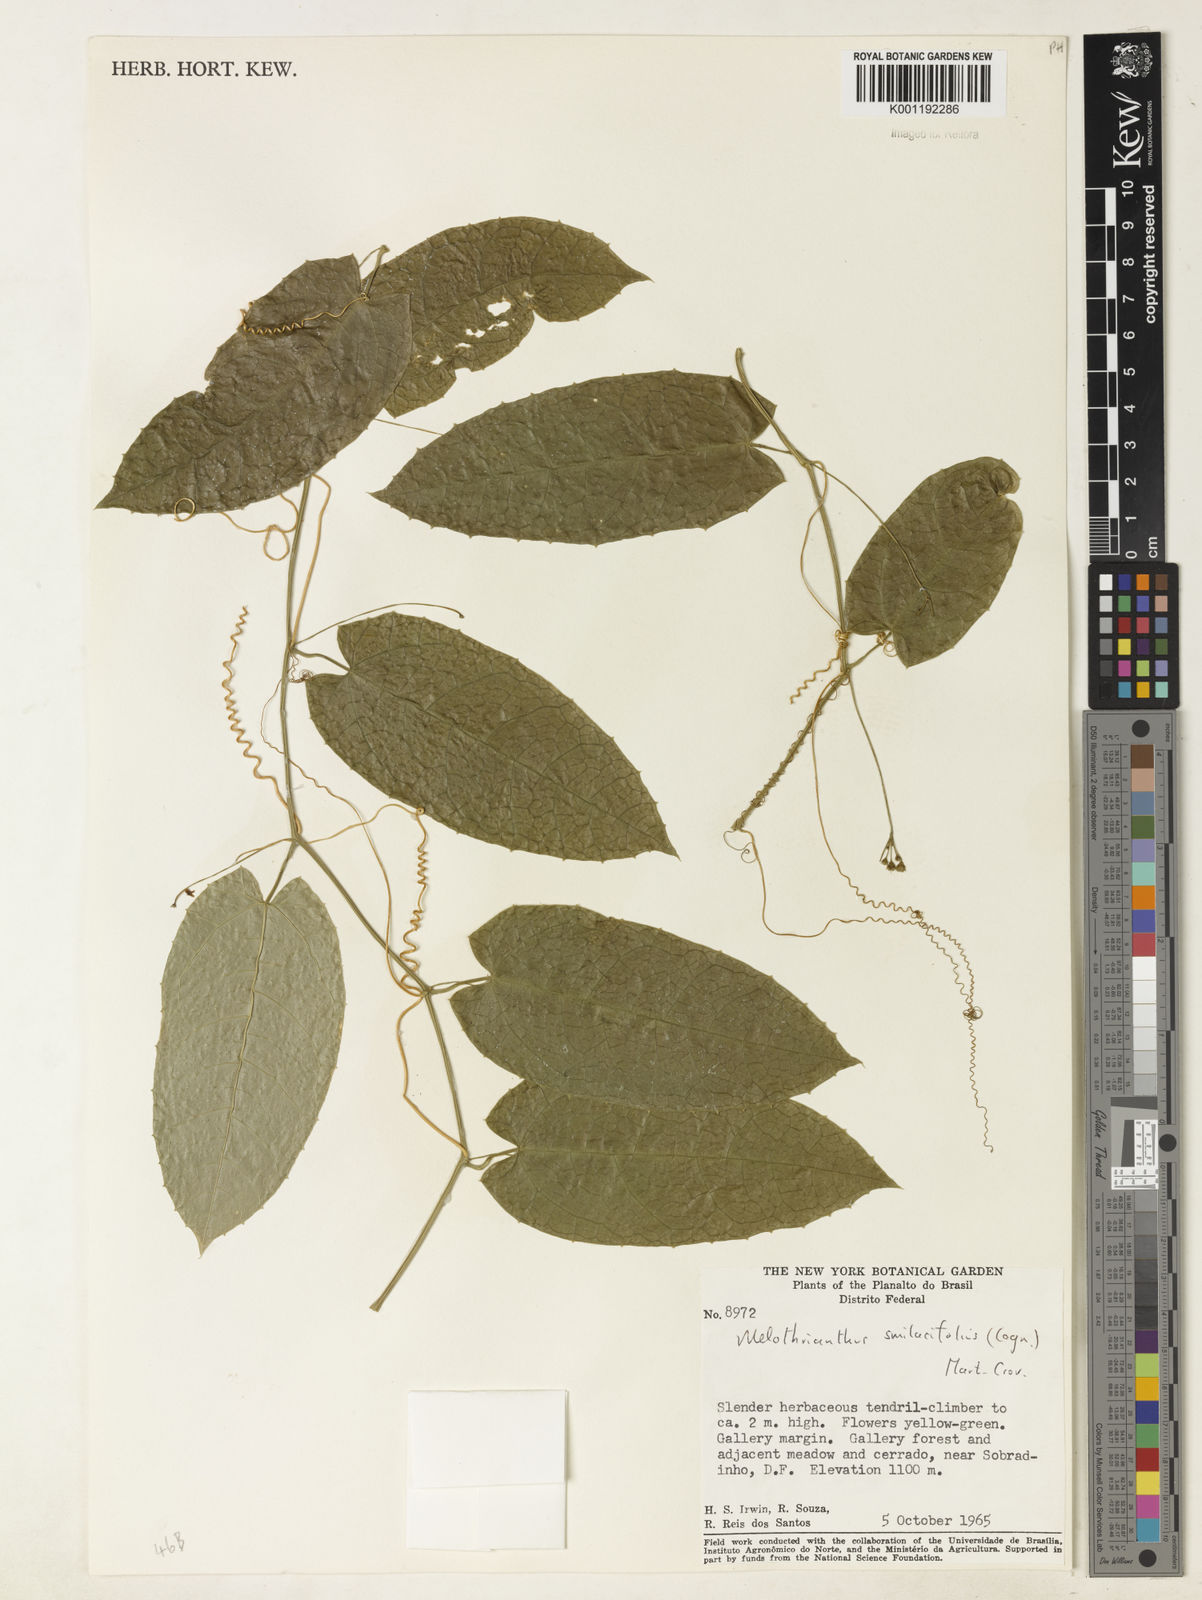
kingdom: Plantae
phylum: Tracheophyta
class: Magnoliopsida
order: Cucurbitales
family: Cucurbitaceae
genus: Apodanthera
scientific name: Apodanthera smilacifolia
